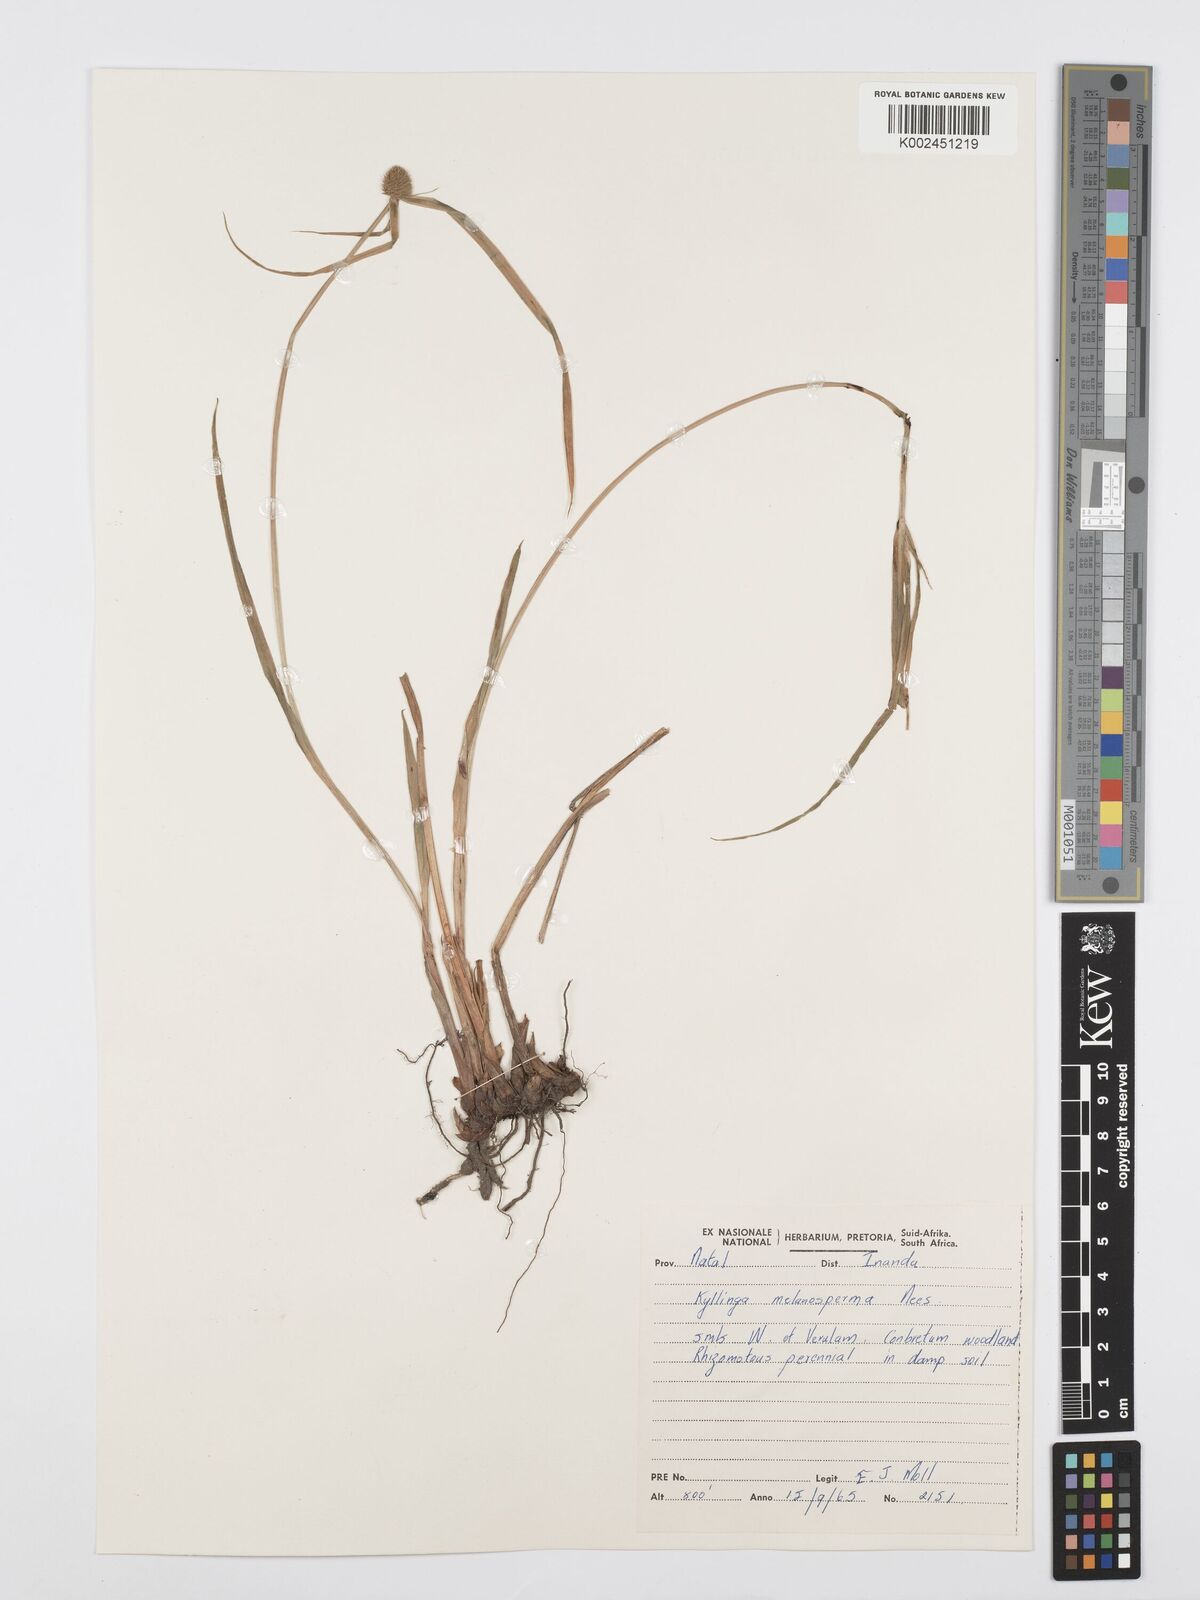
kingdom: Plantae
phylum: Tracheophyta
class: Liliopsida
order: Poales
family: Cyperaceae
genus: Cyperus
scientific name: Cyperus melanospermus
